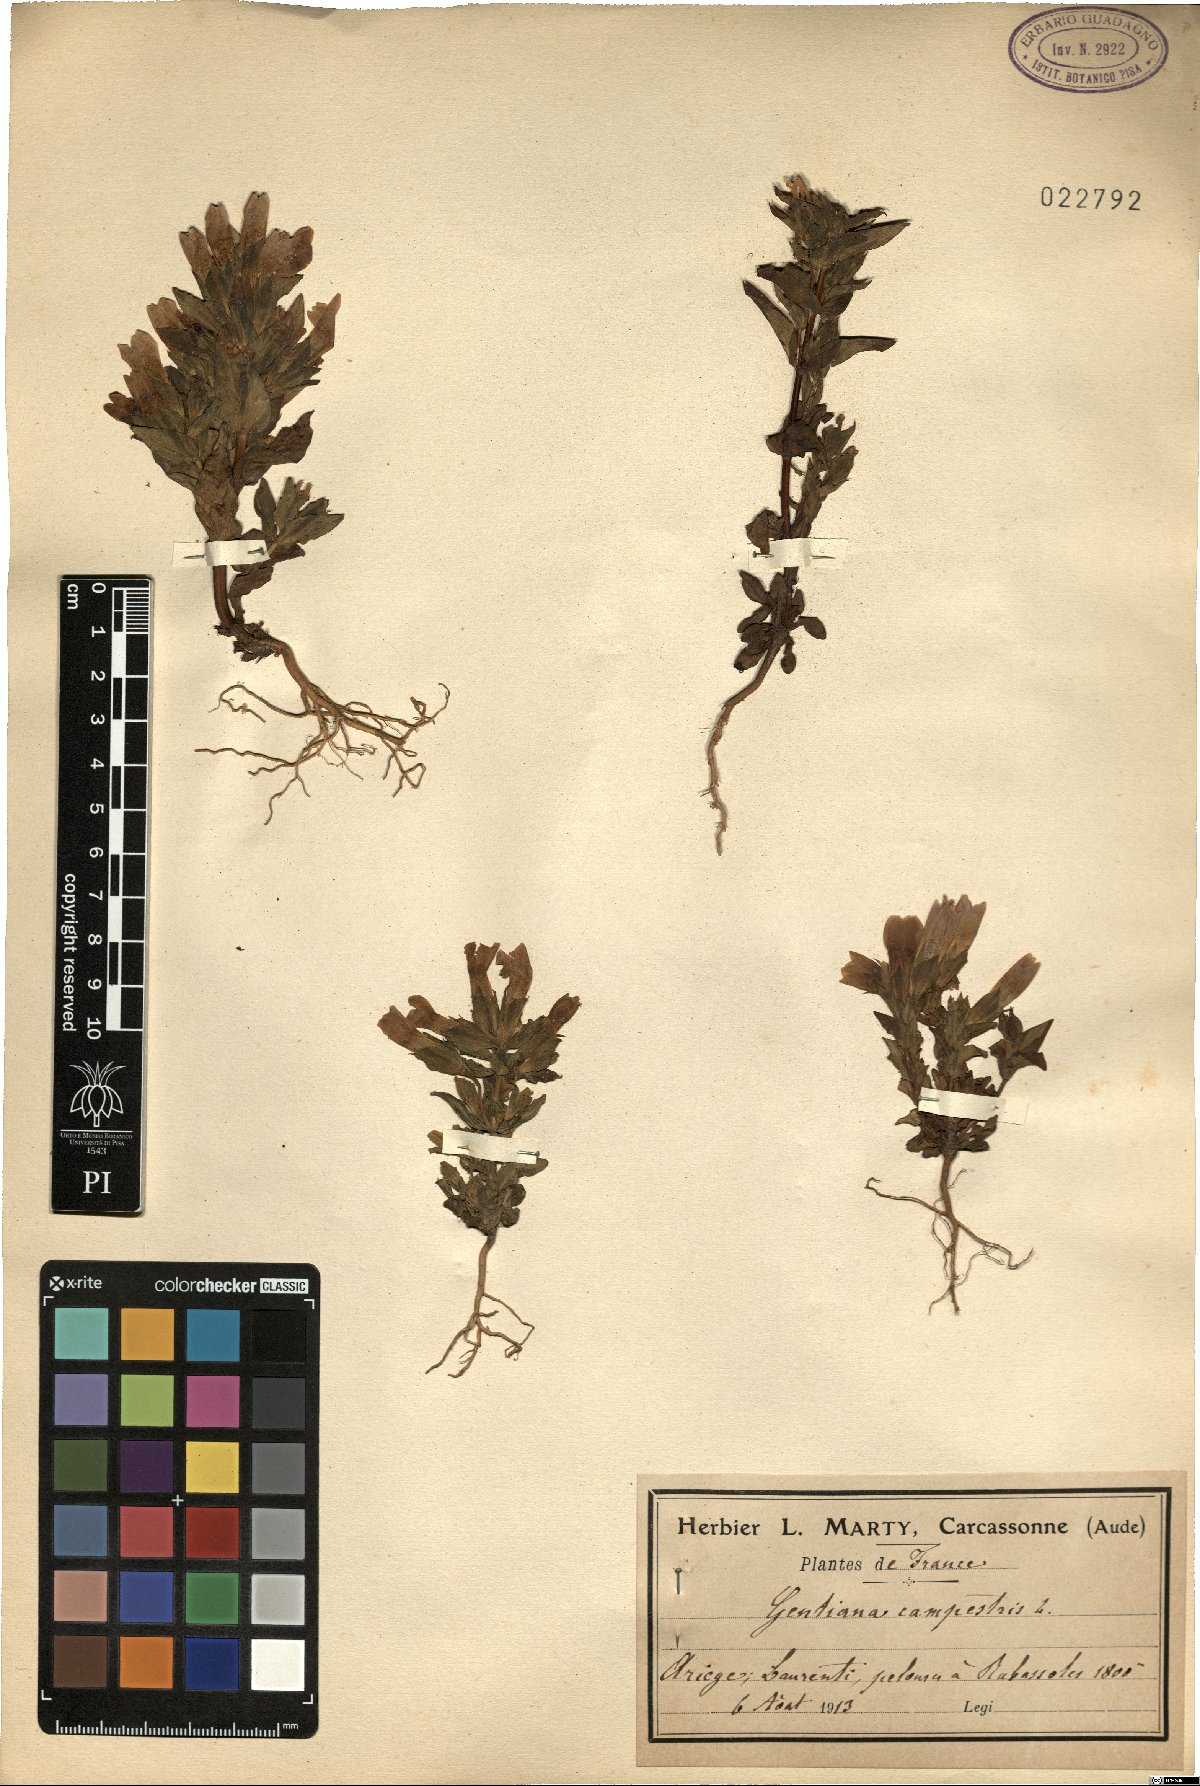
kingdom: Plantae
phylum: Tracheophyta
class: Magnoliopsida
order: Gentianales
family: Gentianaceae
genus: Gentianella
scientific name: Gentianella campestris
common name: Field gentian
